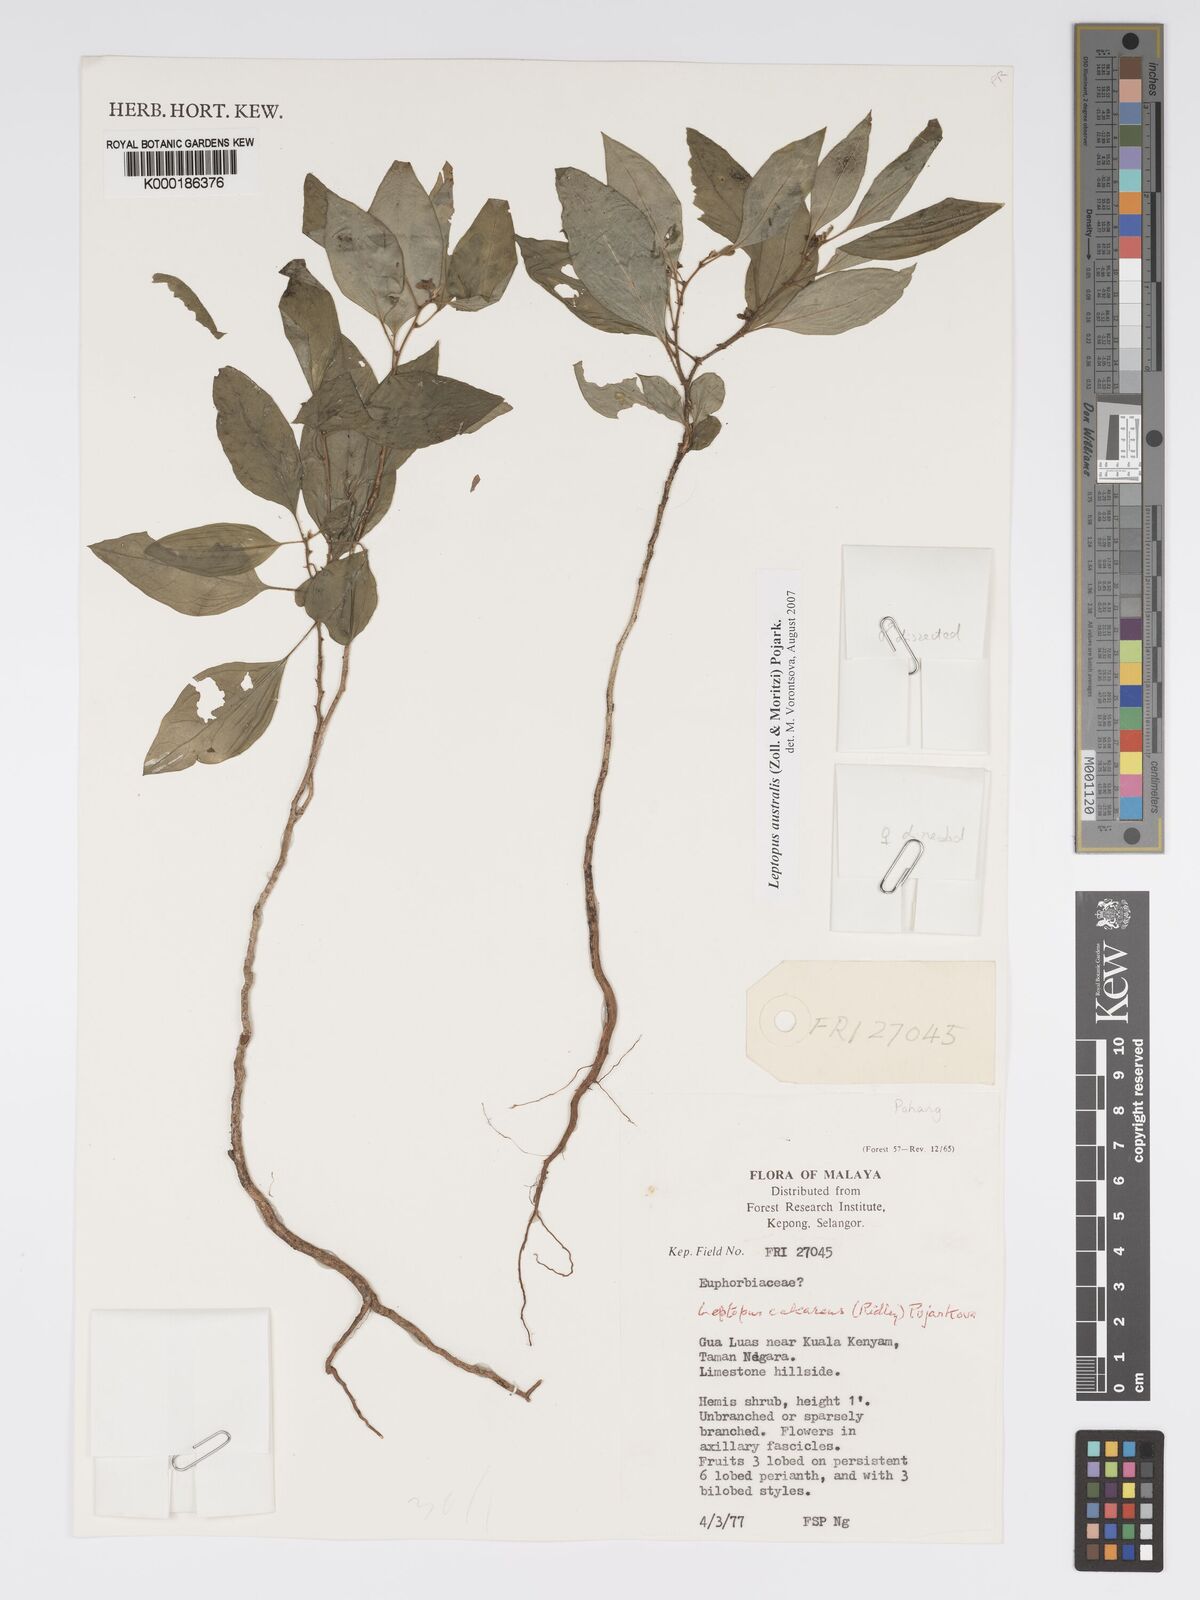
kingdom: Plantae
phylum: Tracheophyta
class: Magnoliopsida
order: Malpighiales
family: Phyllanthaceae
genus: Leptopus
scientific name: Leptopus australis
